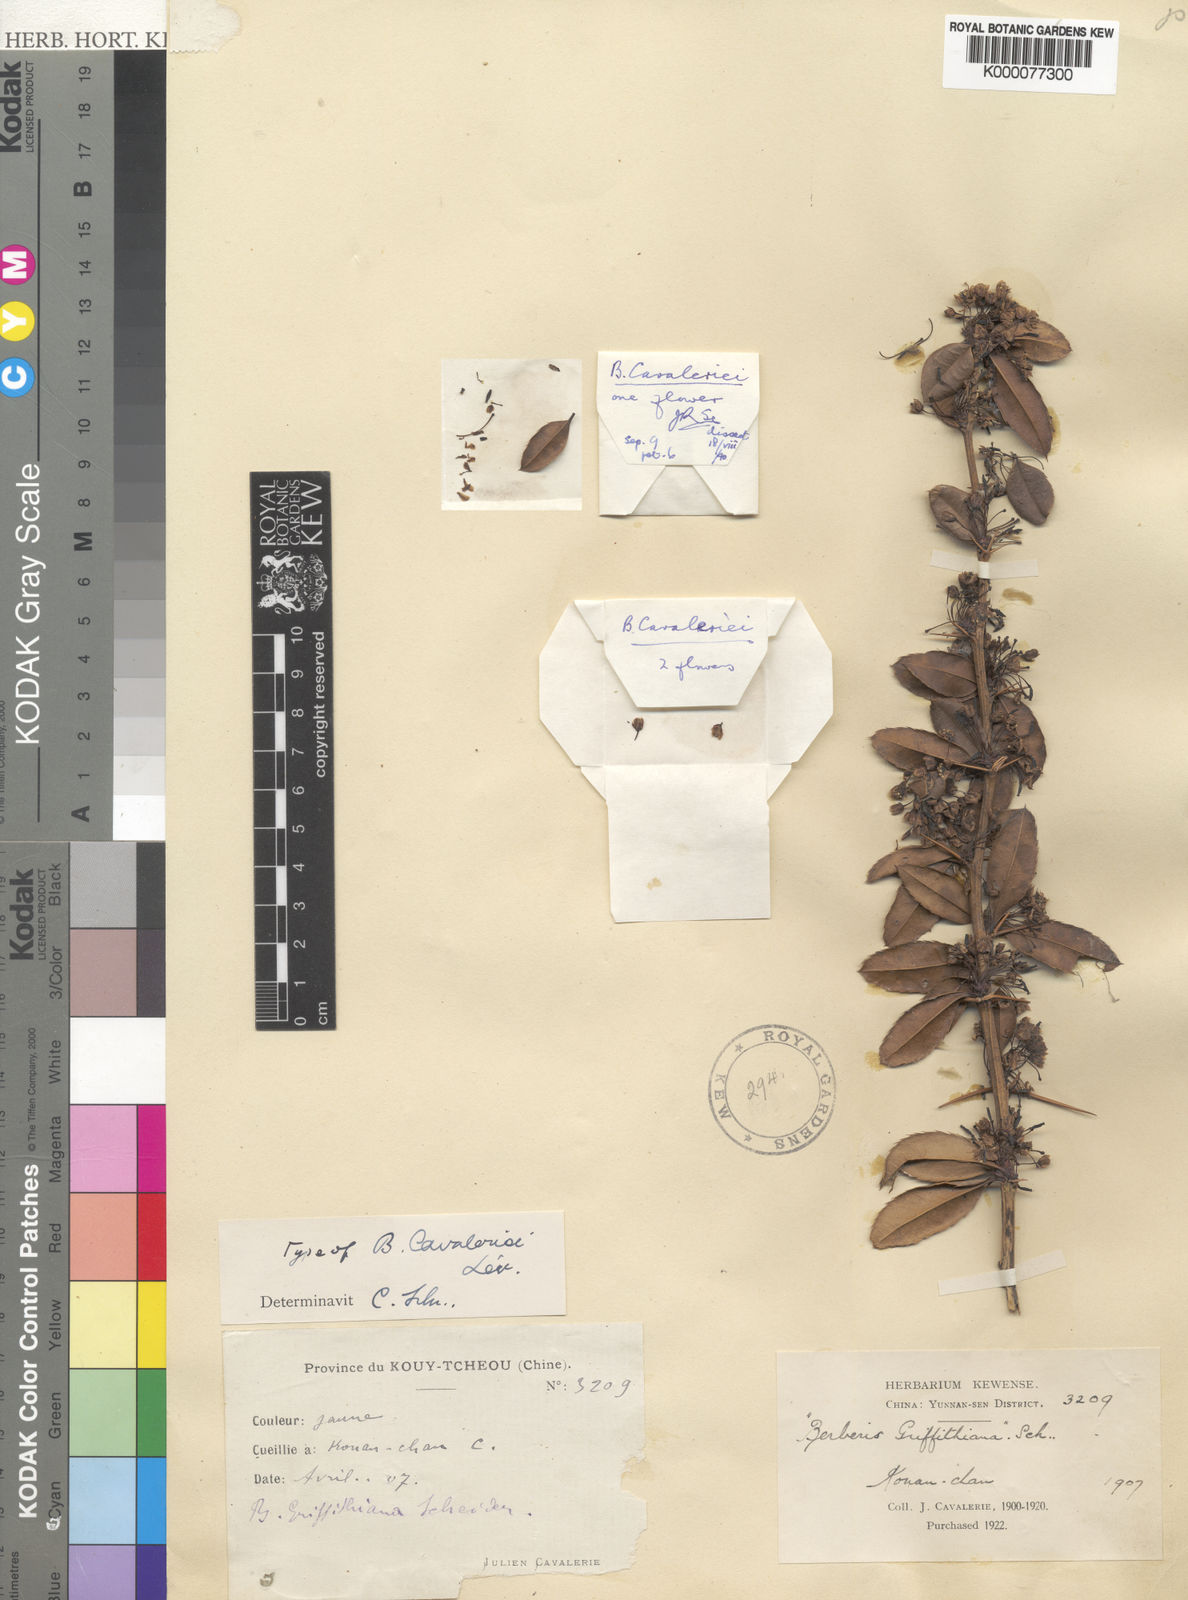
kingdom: Plantae
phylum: Tracheophyta
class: Magnoliopsida
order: Ranunculales
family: Berberidaceae
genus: Berberis
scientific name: Berberis
